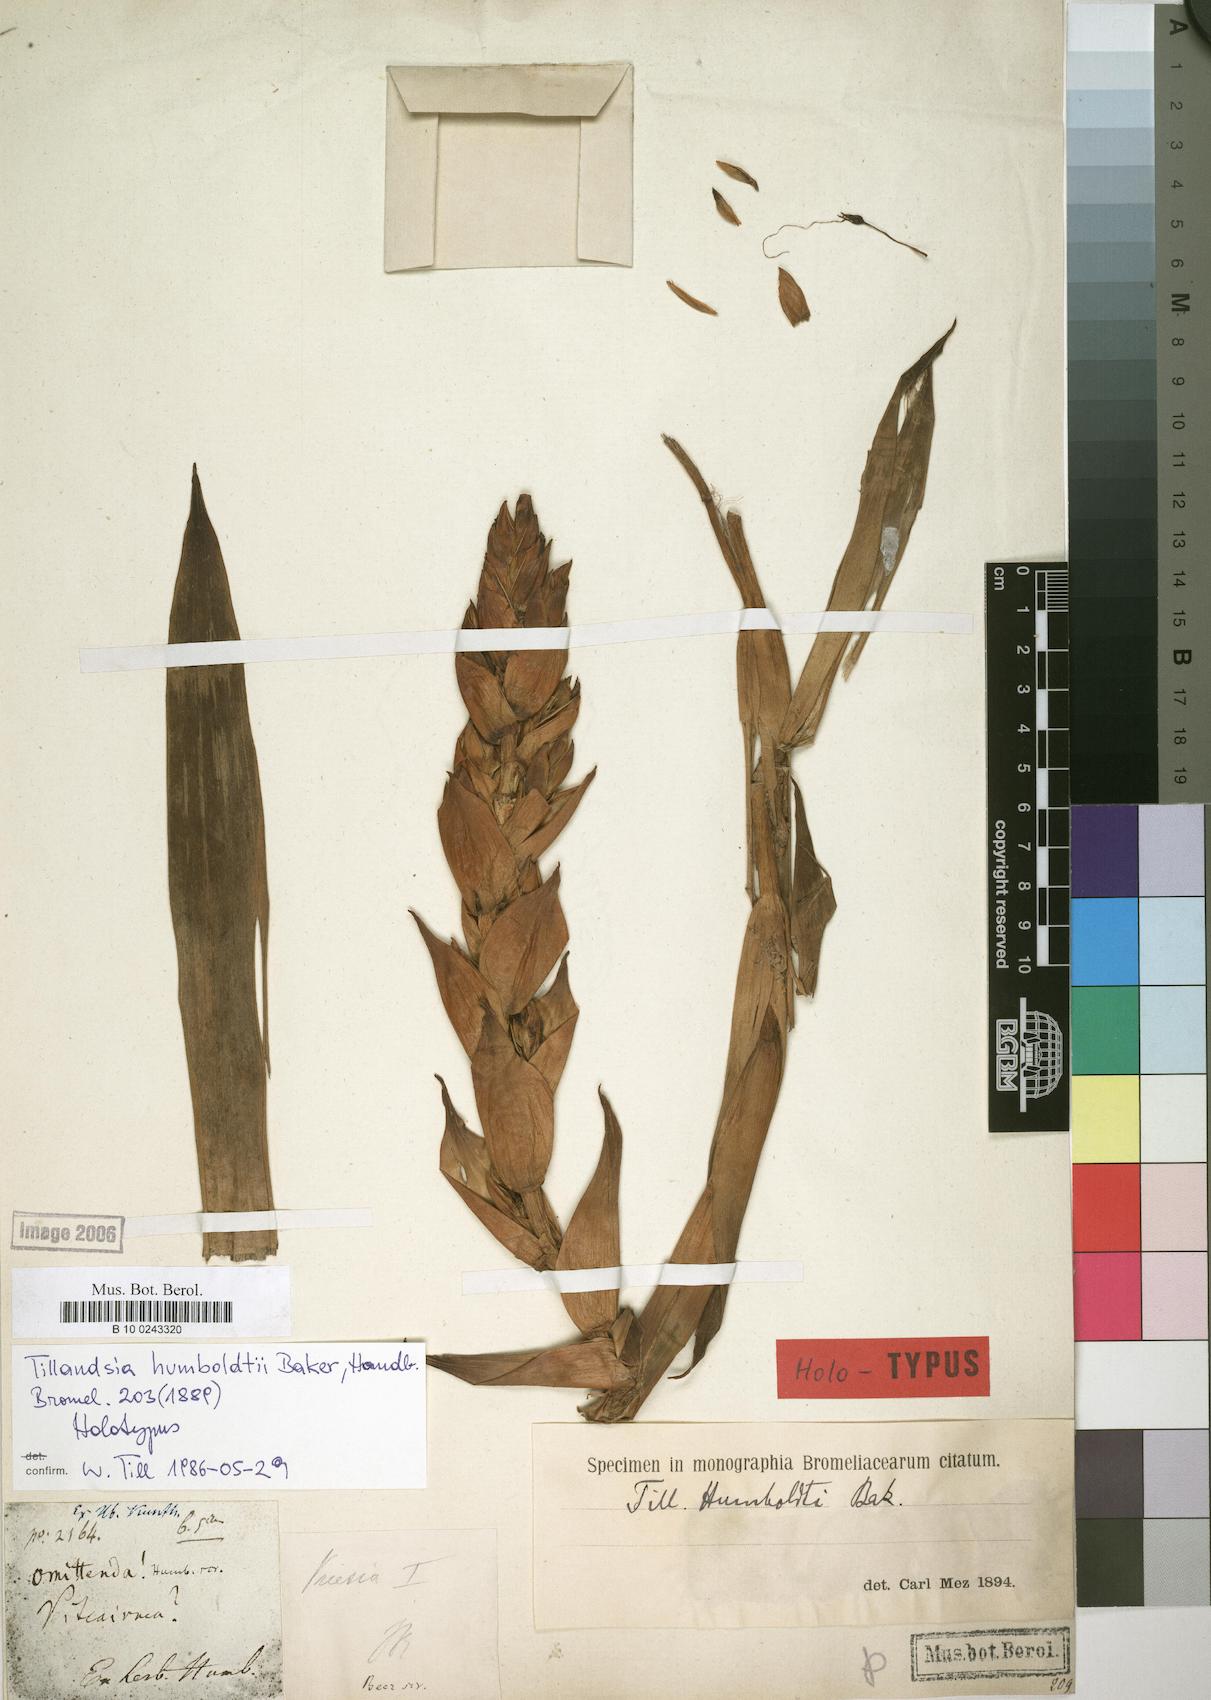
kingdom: Plantae
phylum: Tracheophyta
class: Liliopsida
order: Poales
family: Bromeliaceae
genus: Tillandsia
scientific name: Tillandsia humboldtii
